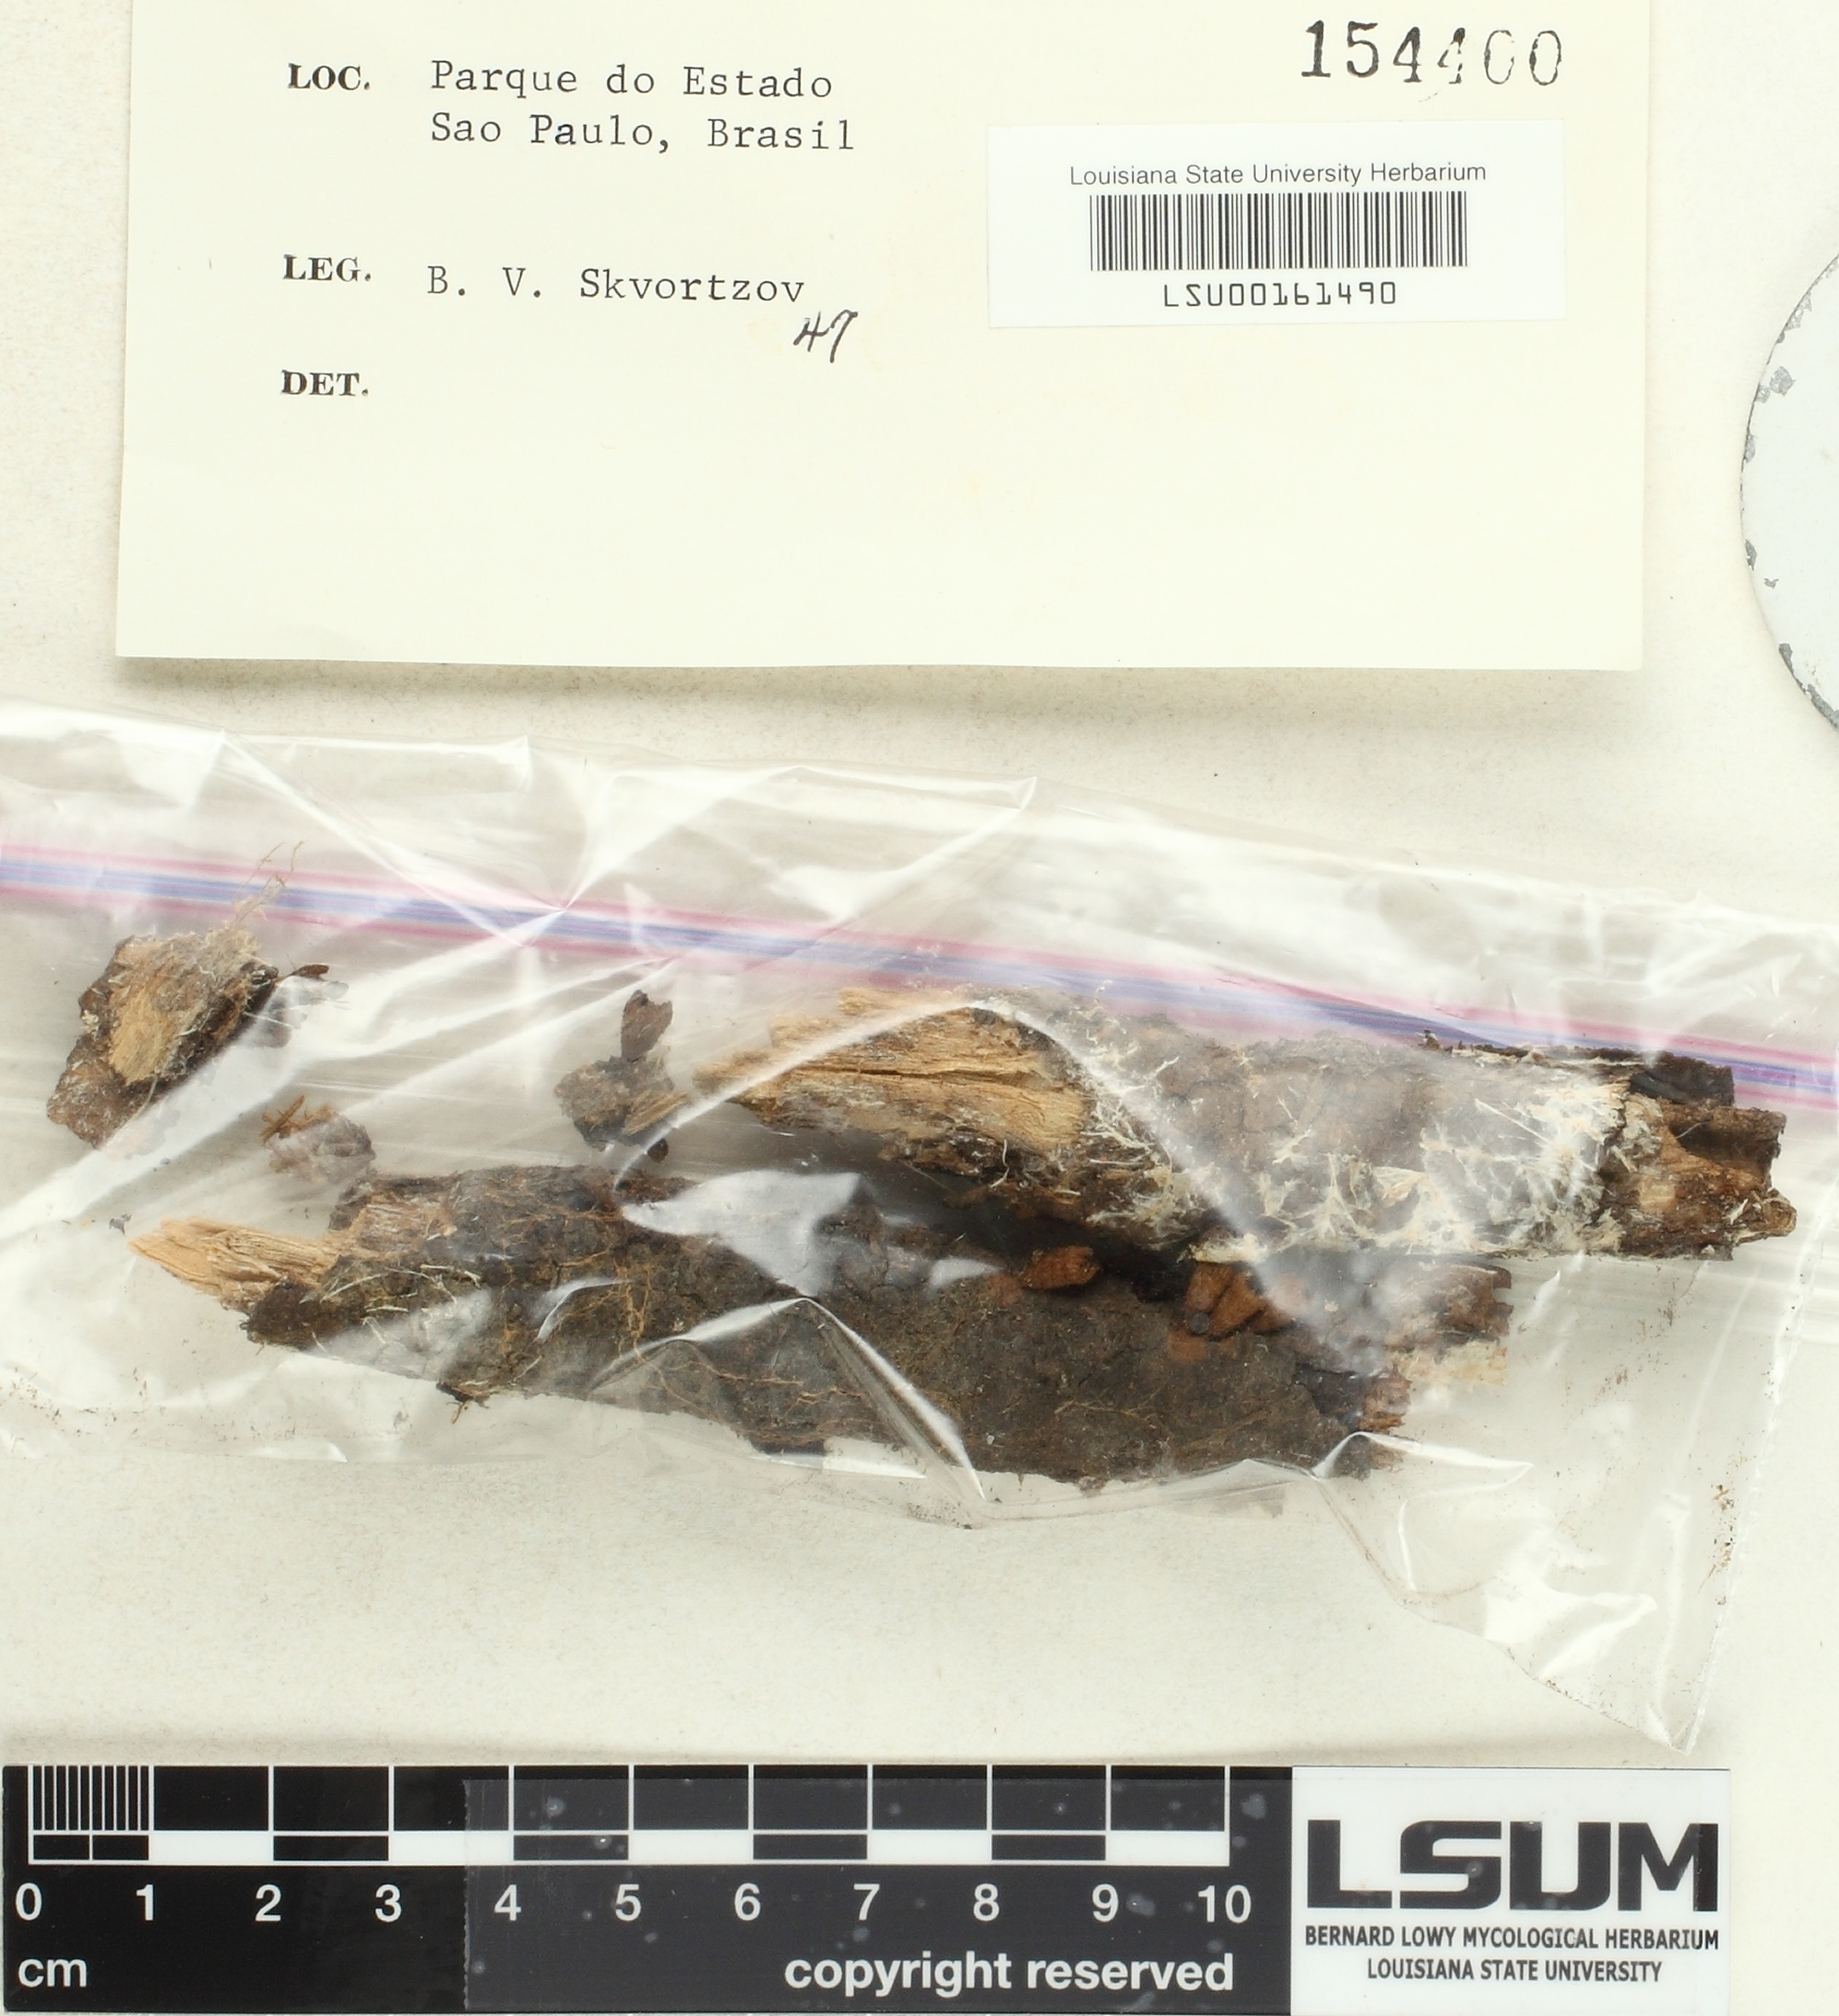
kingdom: Fungi
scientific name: Fungi
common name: Fungi
